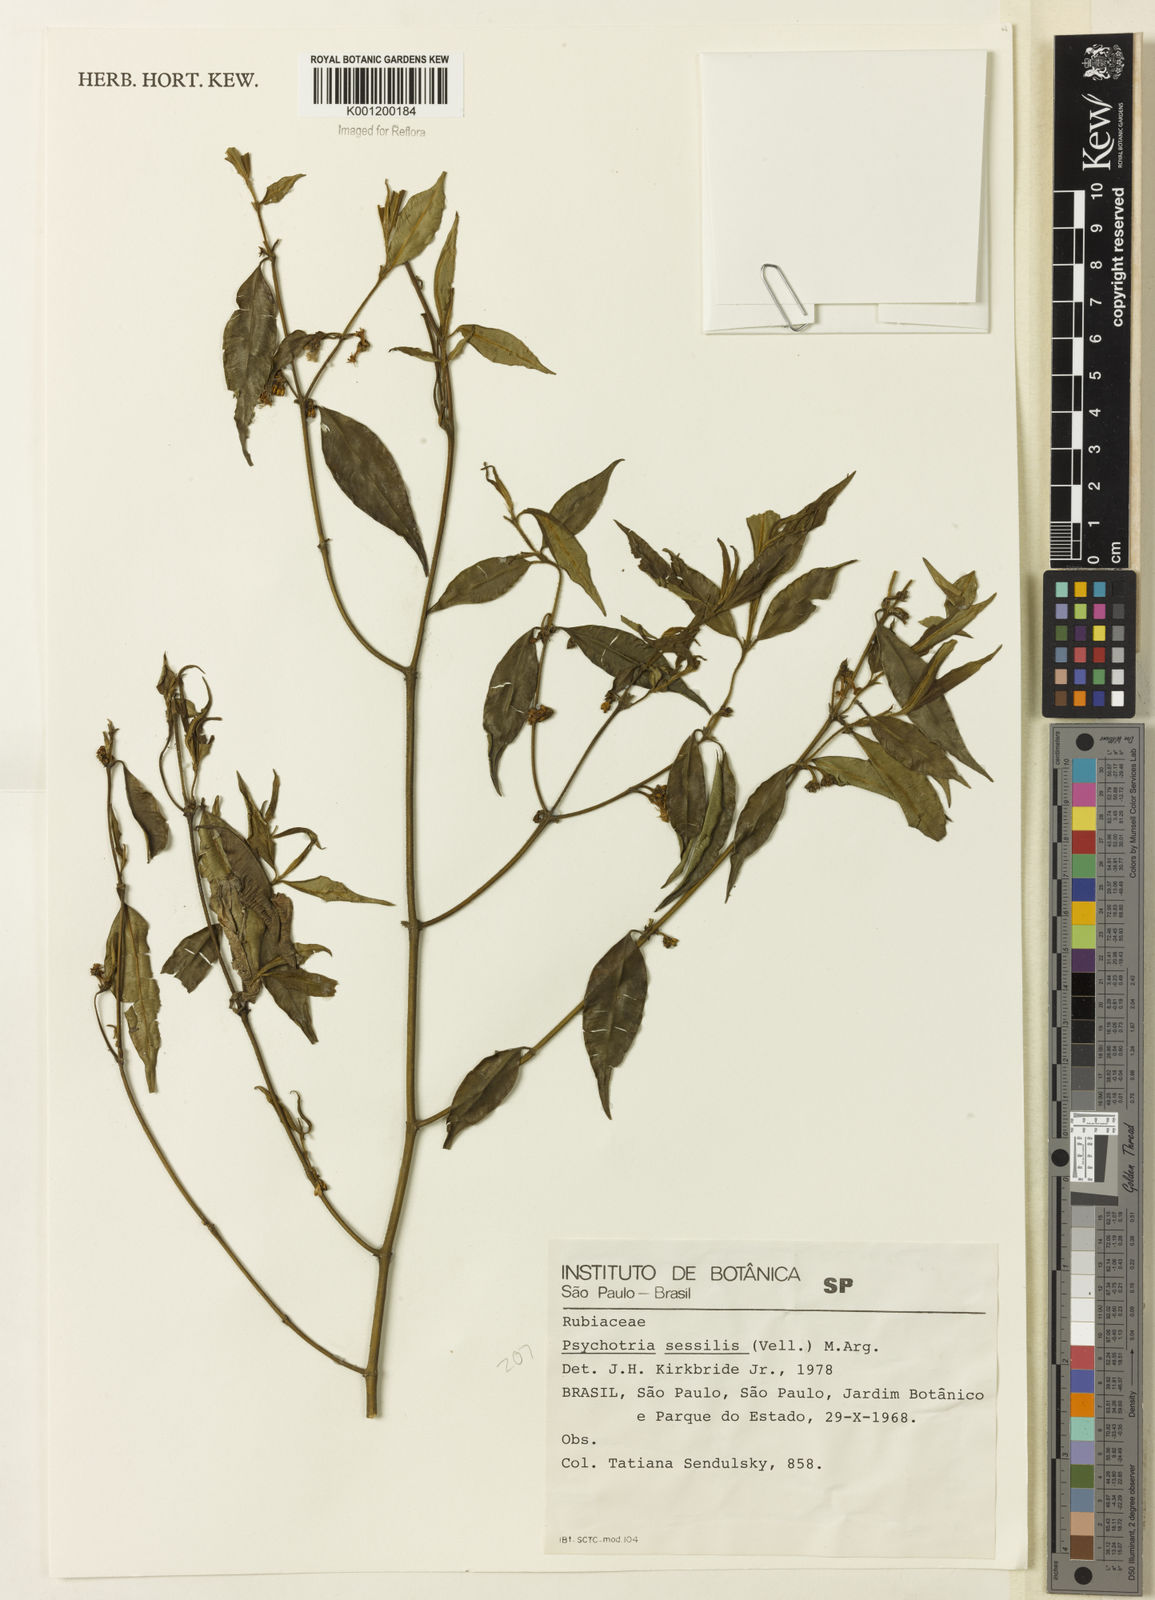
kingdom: Plantae
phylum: Tracheophyta
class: Magnoliopsida
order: Gentianales
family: Rubiaceae
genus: Rudgea
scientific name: Rudgea sessilis
